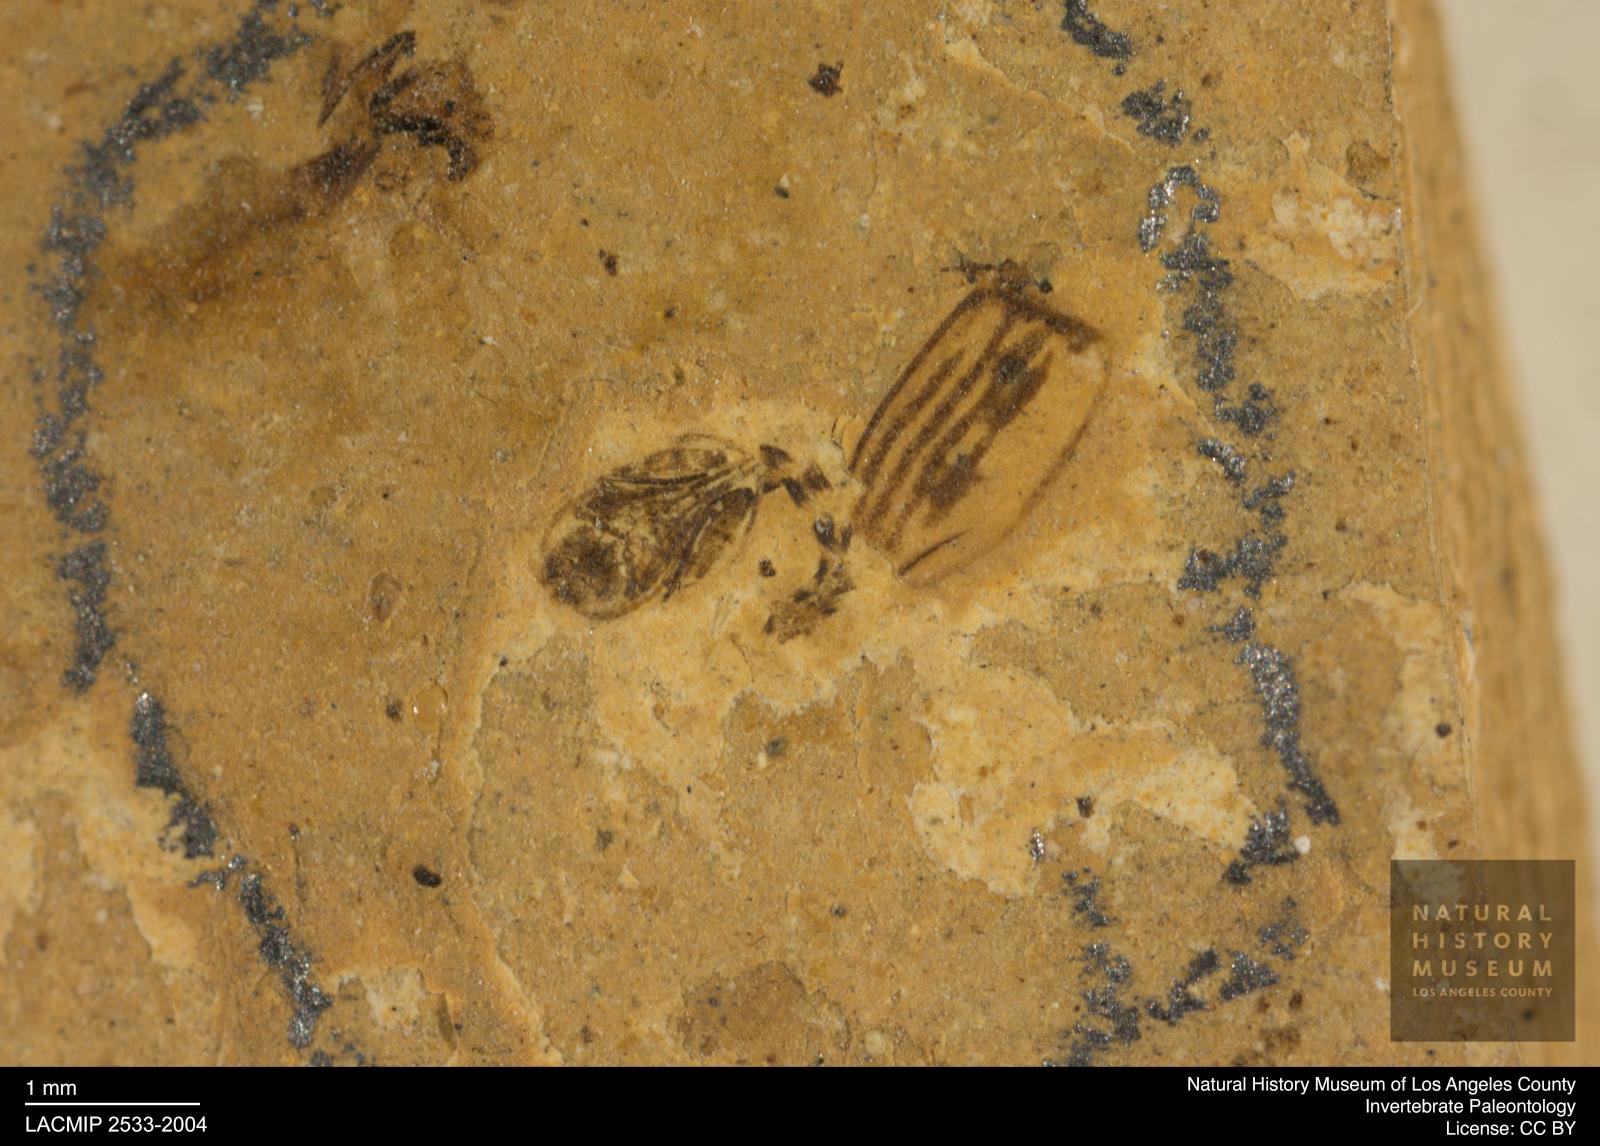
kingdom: Animalia
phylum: Arthropoda
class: Insecta
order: Diptera
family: Ceratopogonidae
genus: Ceratopogon
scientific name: Ceratopogon
